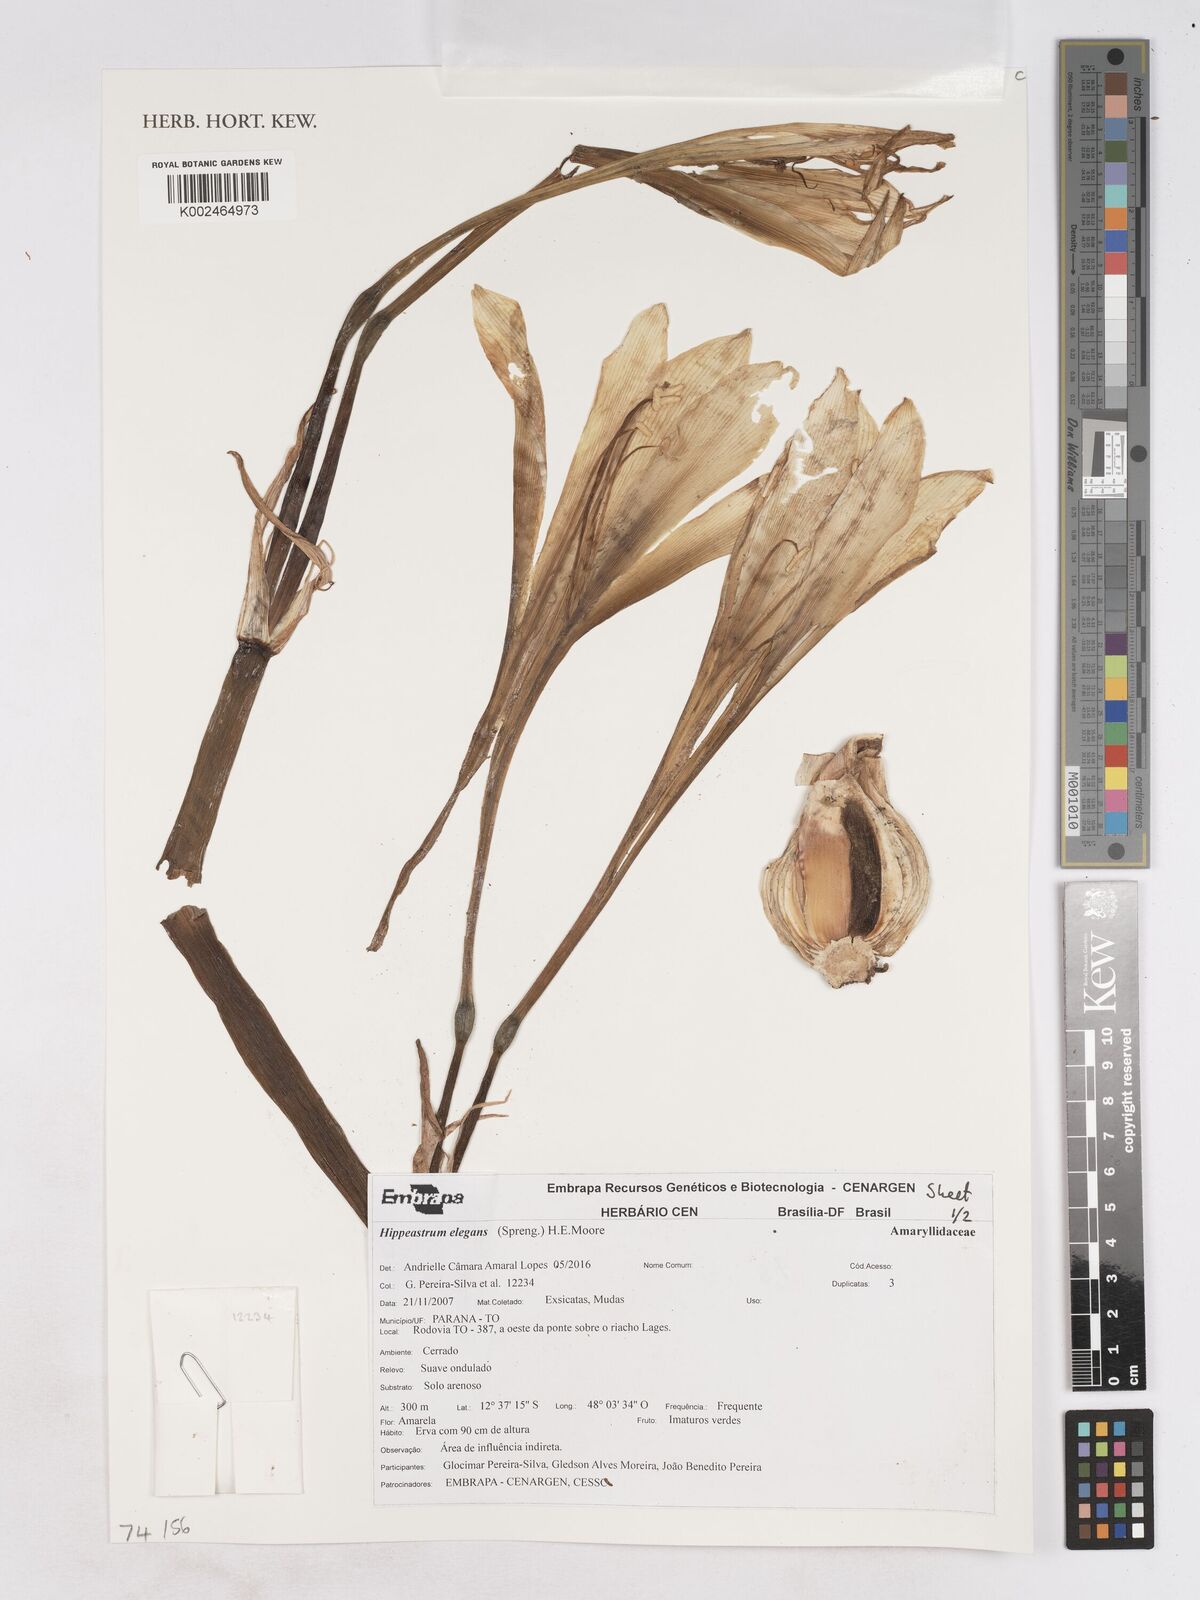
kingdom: Plantae
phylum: Tracheophyta
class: Liliopsida
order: Asparagales
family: Amaryllidaceae
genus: Hippeastrum
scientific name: Hippeastrum elegans
